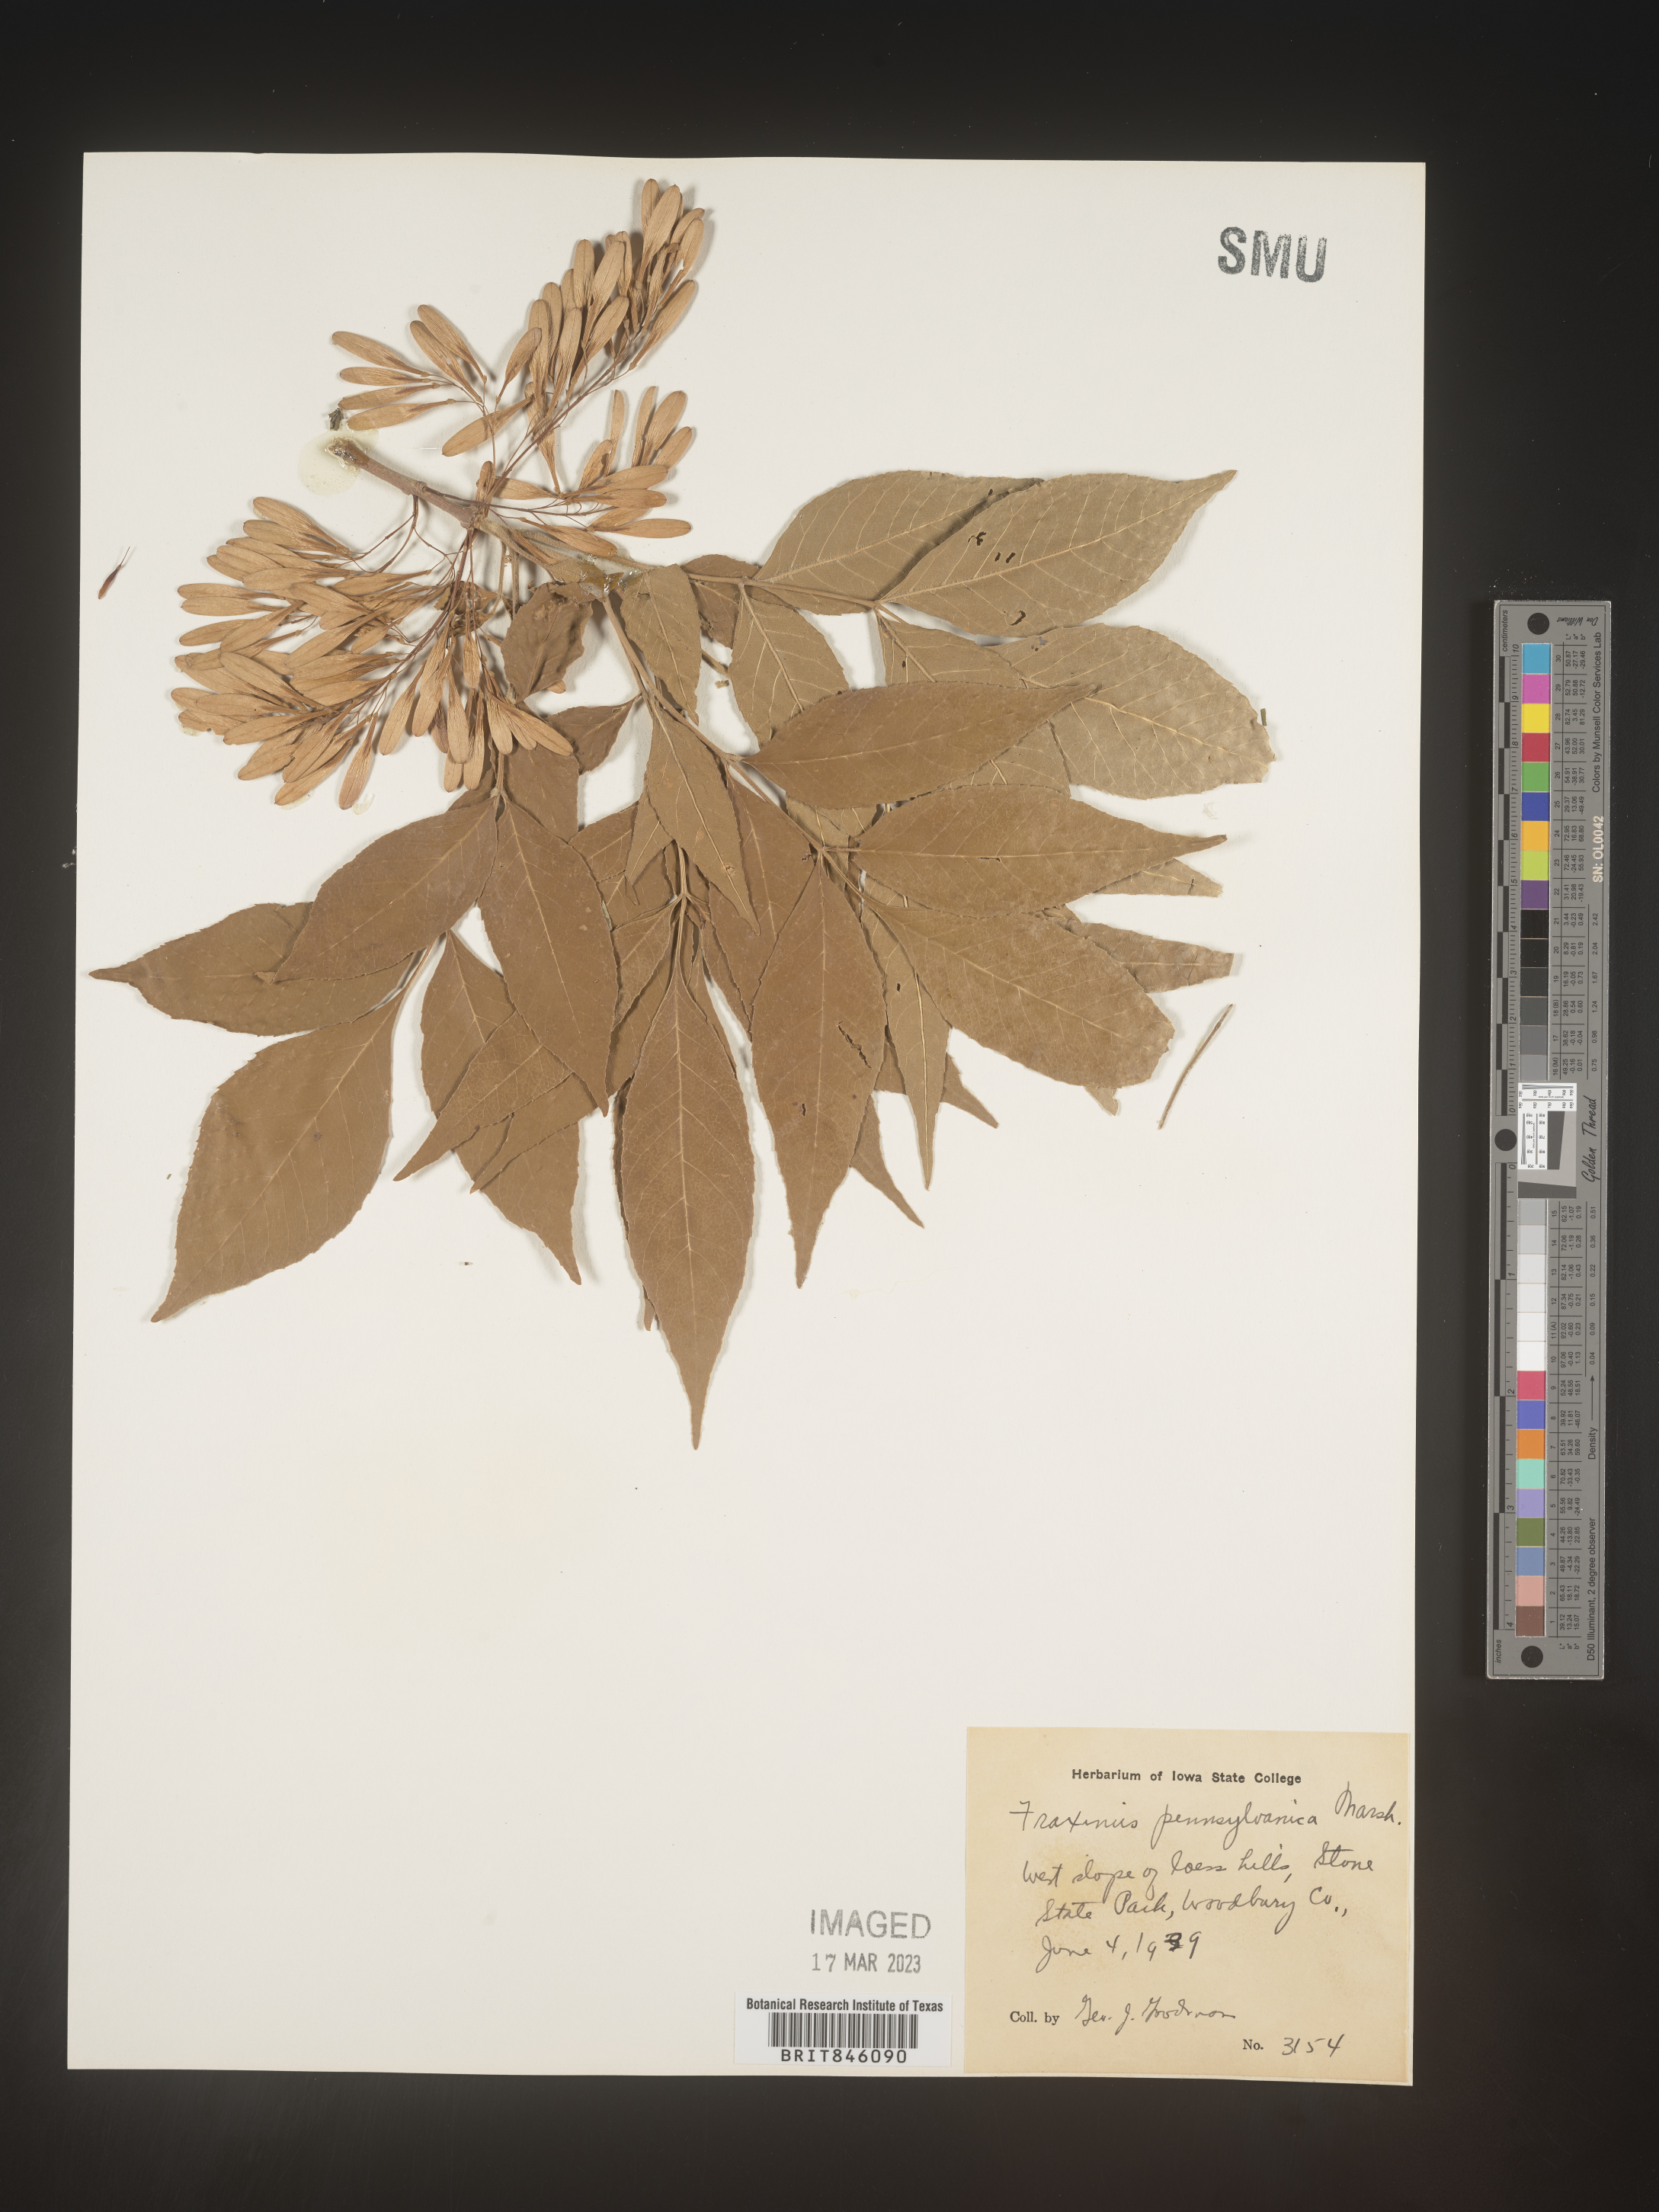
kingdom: Plantae
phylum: Tracheophyta
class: Magnoliopsida
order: Lamiales
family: Oleaceae
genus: Fraxinus
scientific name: Fraxinus pennsylvanica
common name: Green ash
